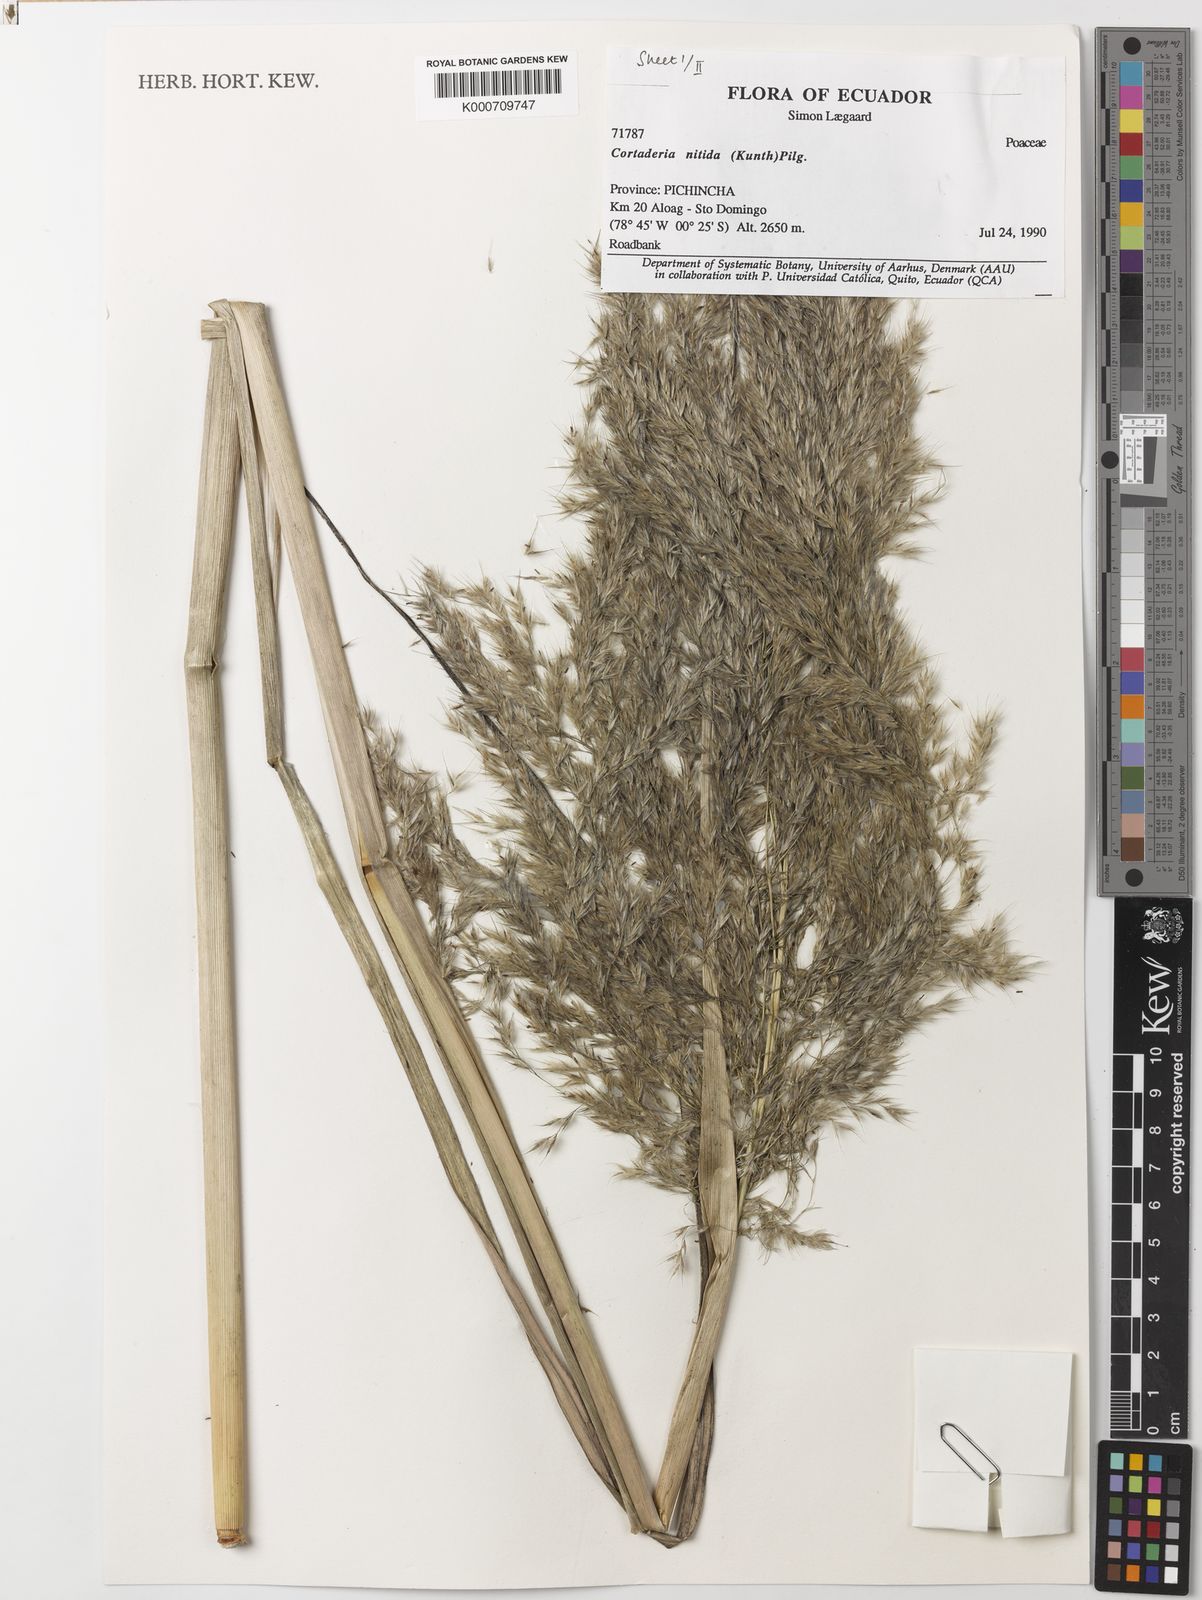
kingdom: Plantae
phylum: Tracheophyta
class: Liliopsida
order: Poales
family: Poaceae
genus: Cortaderia
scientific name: Cortaderia nitida
